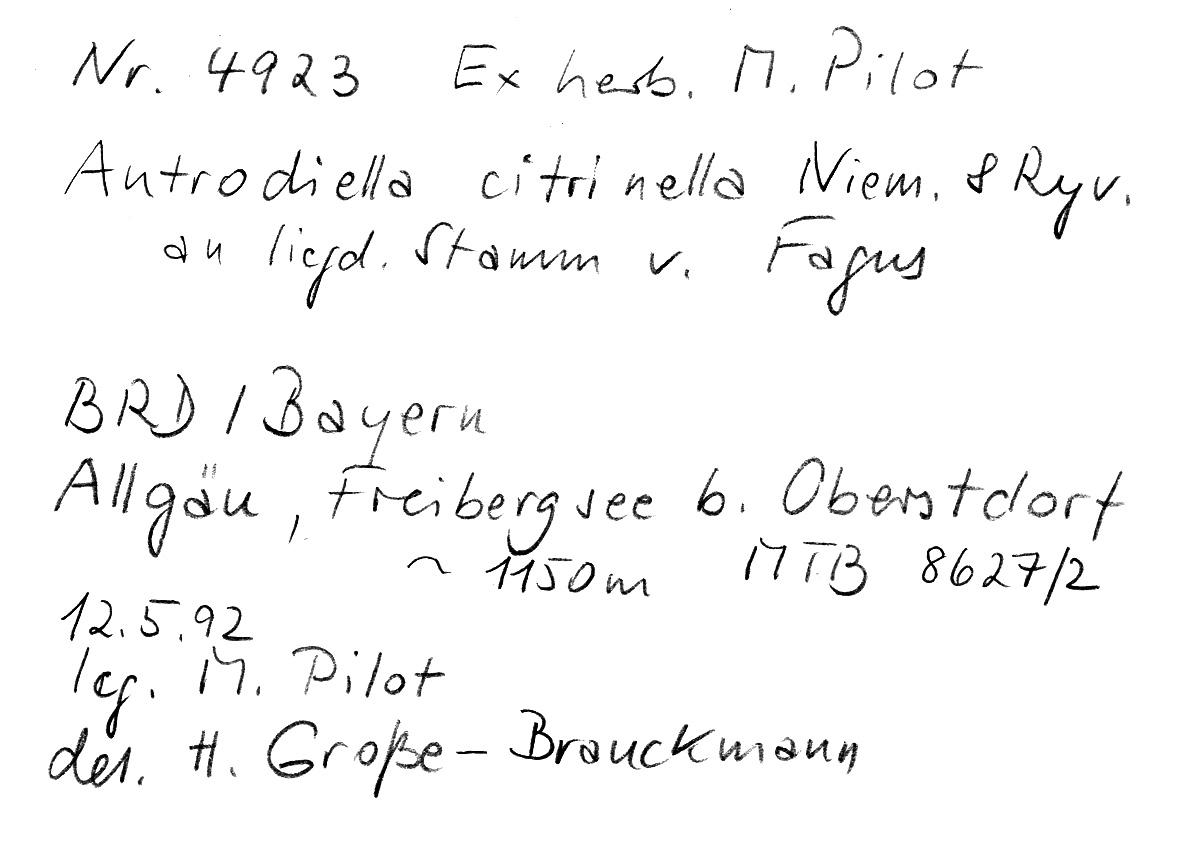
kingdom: Fungi
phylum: Basidiomycota
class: Agaricomycetes
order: Polyporales
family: Steccherinaceae
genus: Flaviporus
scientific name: Flaviporus citrinellus
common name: Lemon-colored antrodiella
